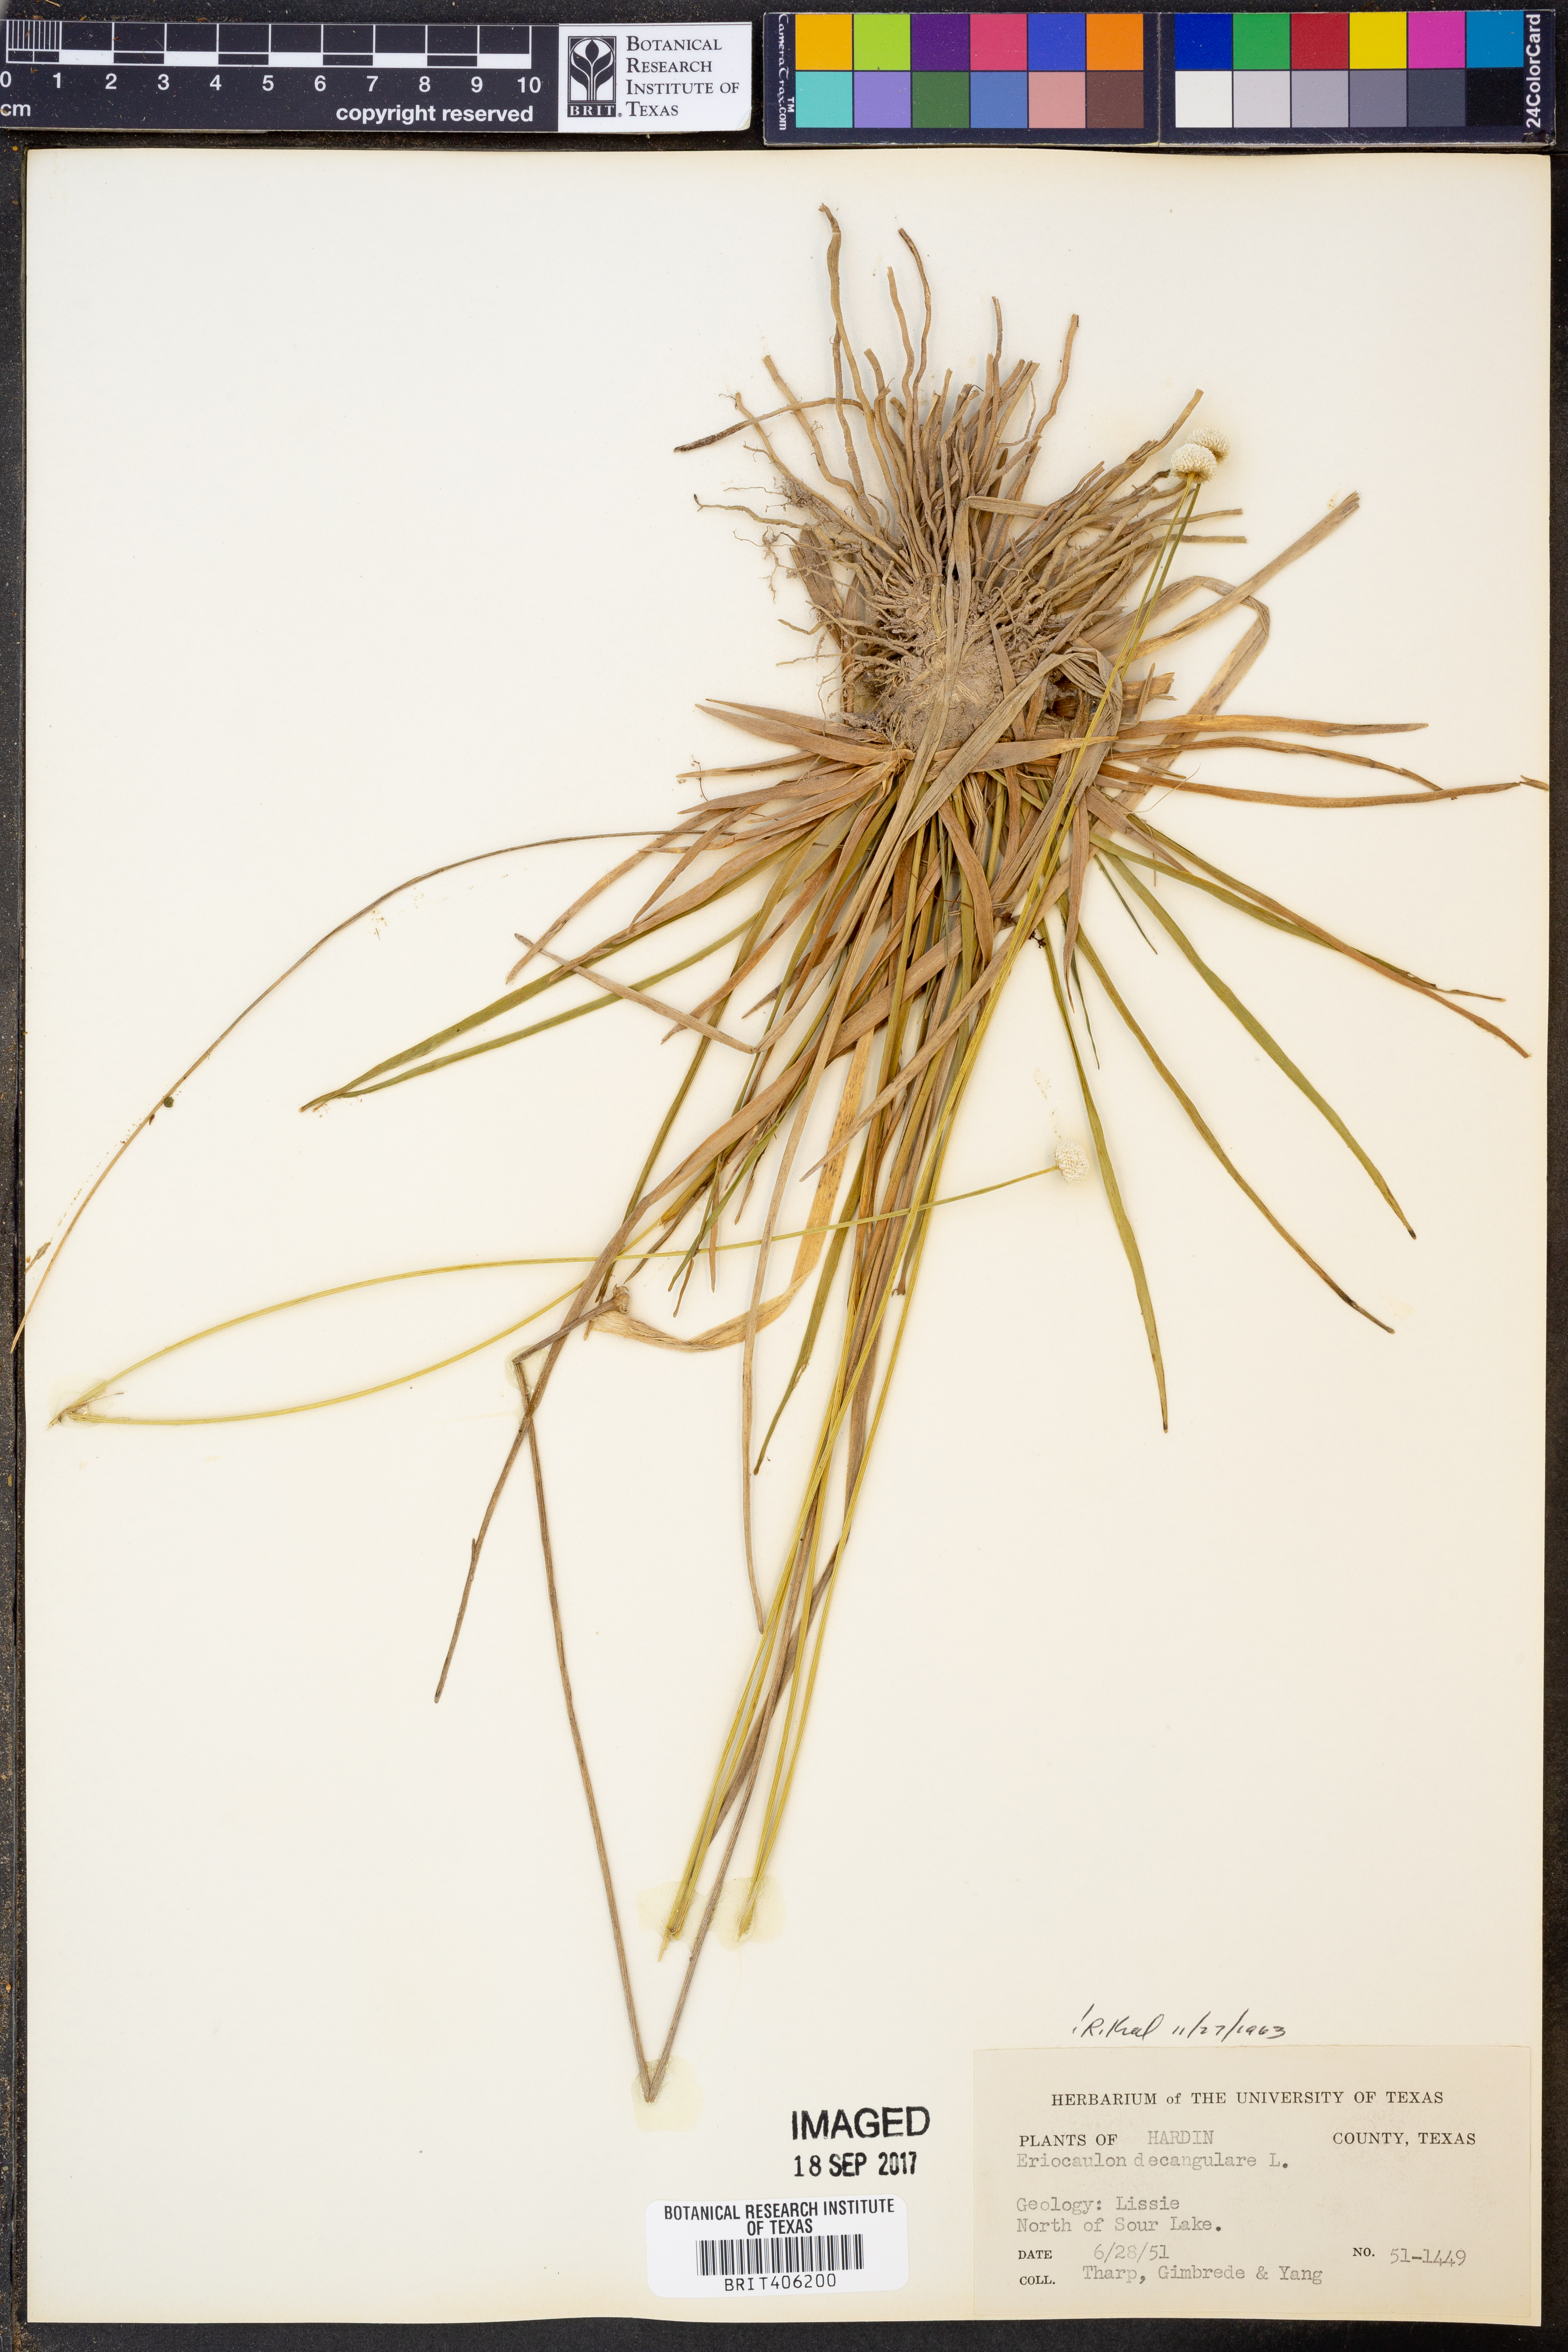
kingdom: Plantae
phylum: Tracheophyta
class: Liliopsida
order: Poales
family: Eriocaulaceae
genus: Eriocaulon
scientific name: Eriocaulon decangulare
